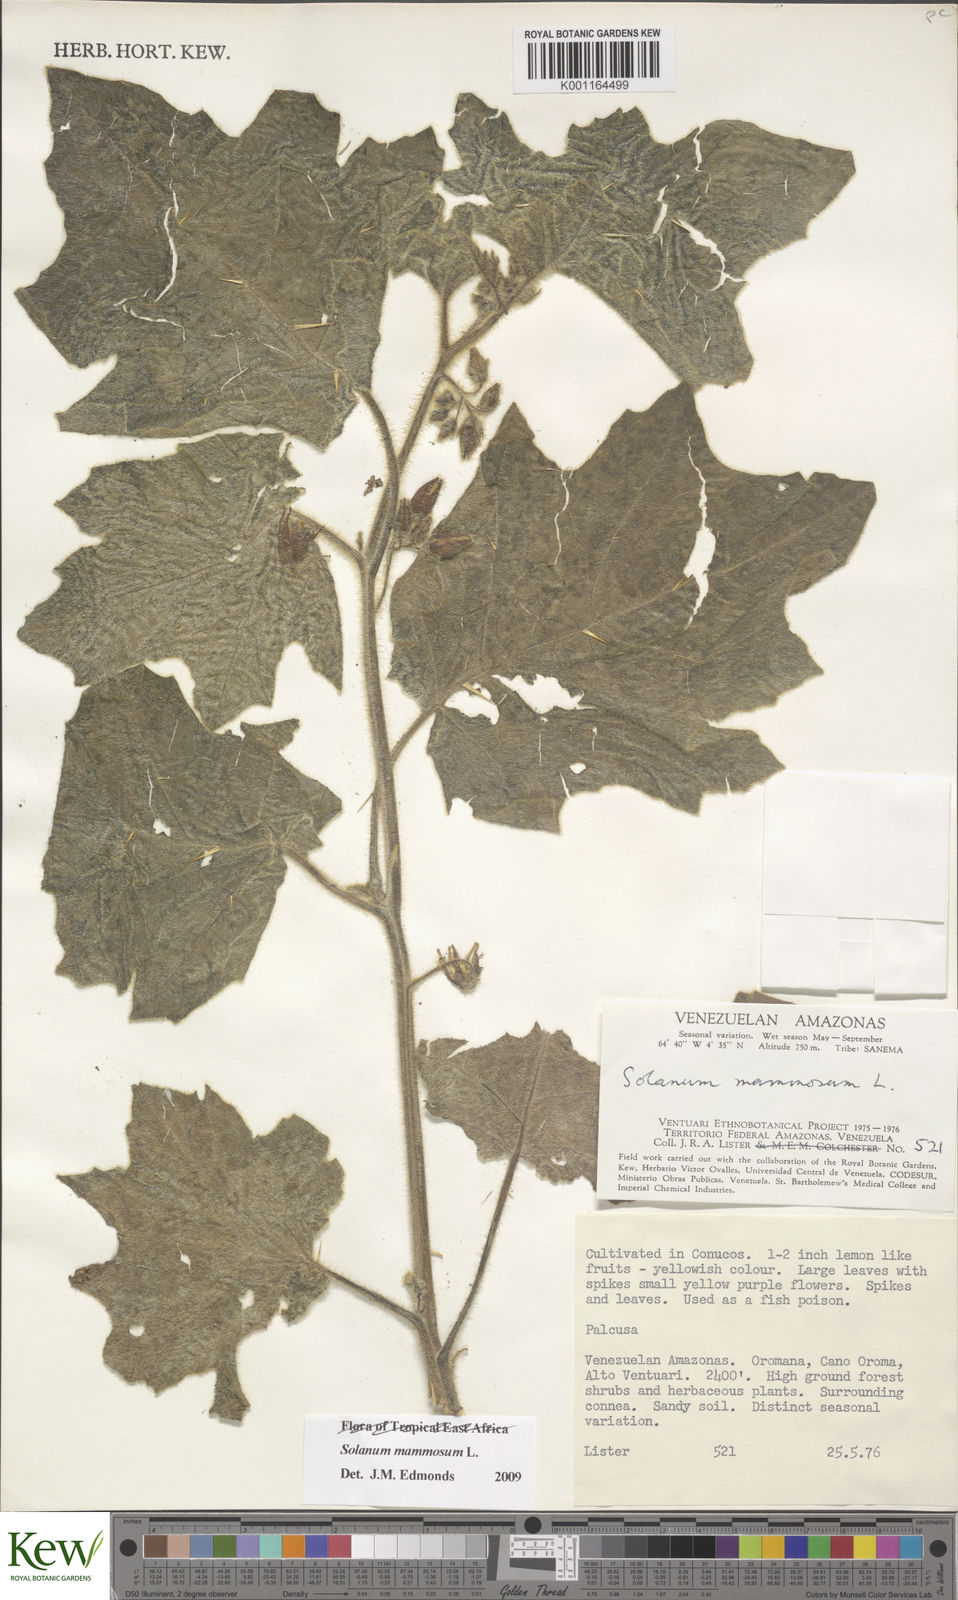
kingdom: Plantae
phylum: Tracheophyta
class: Magnoliopsida
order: Solanales
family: Solanaceae
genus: Solanum
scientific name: Solanum mammosum
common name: Nipple fruit
